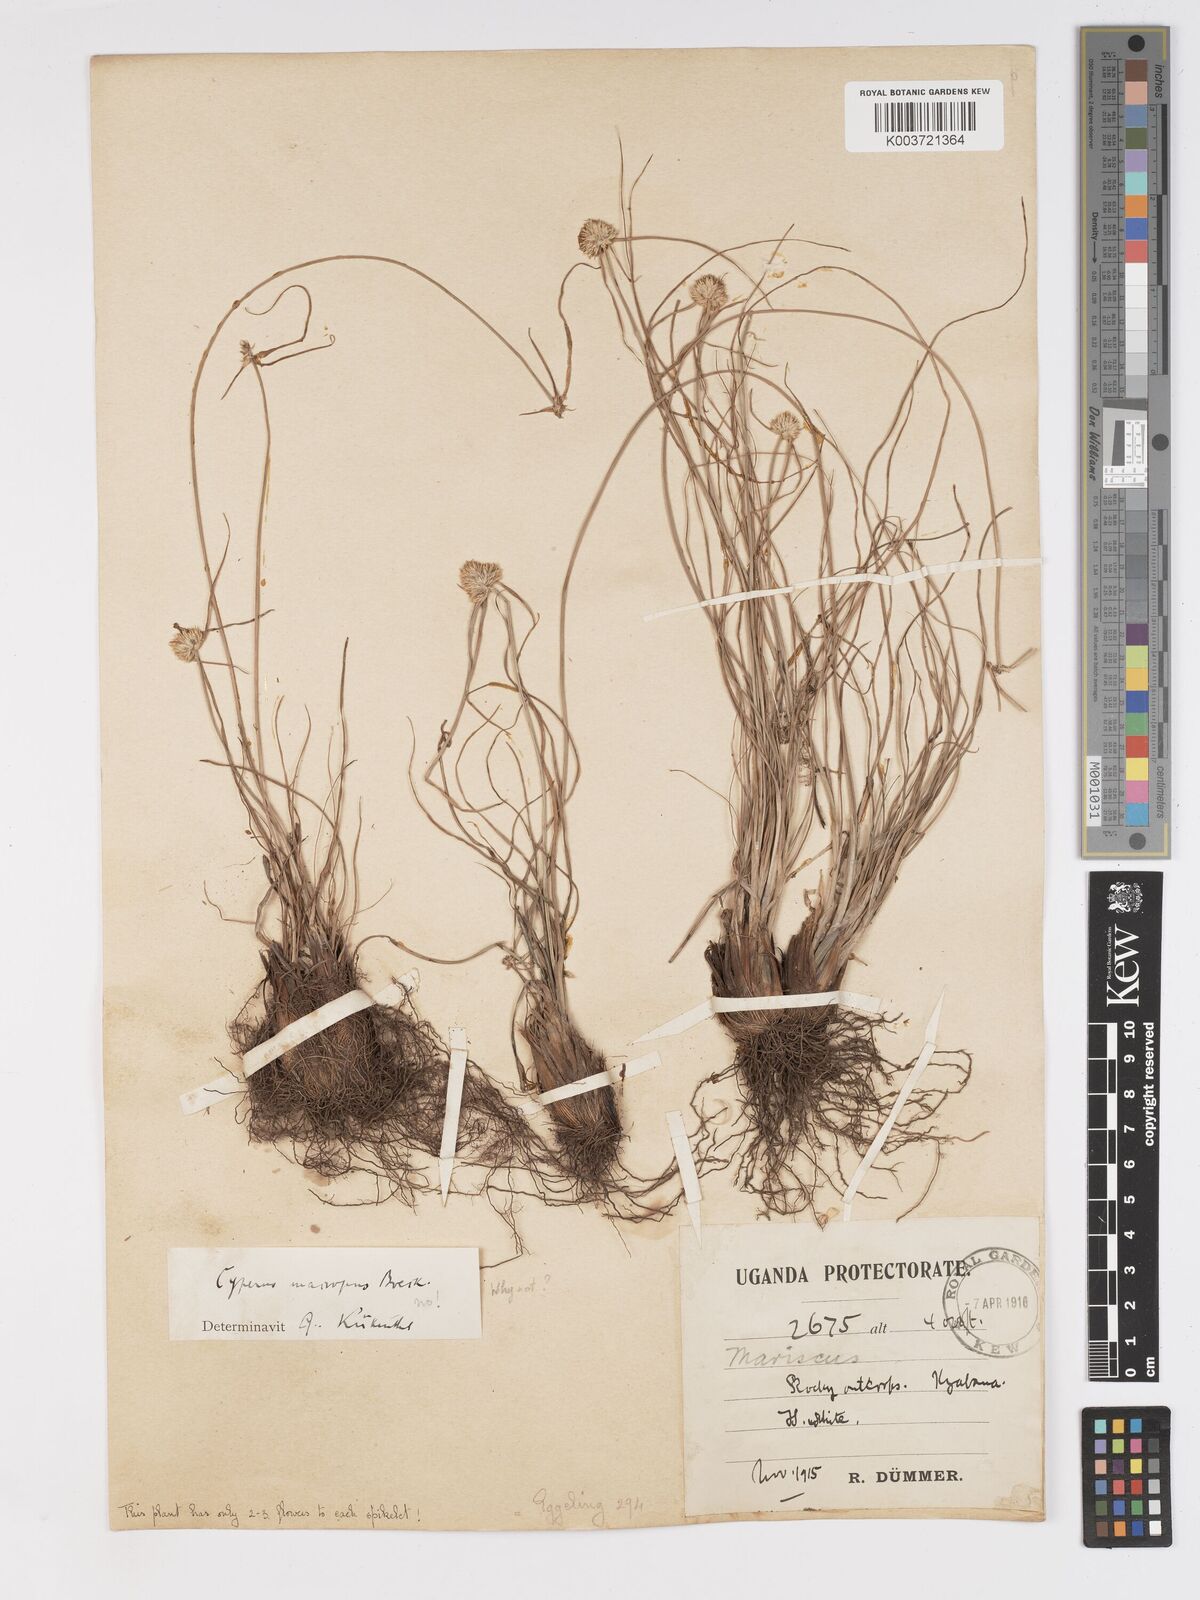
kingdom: Plantae
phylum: Tracheophyta
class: Liliopsida
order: Poales
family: Cyperaceae
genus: Cyperus
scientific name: Cyperus mollipes
